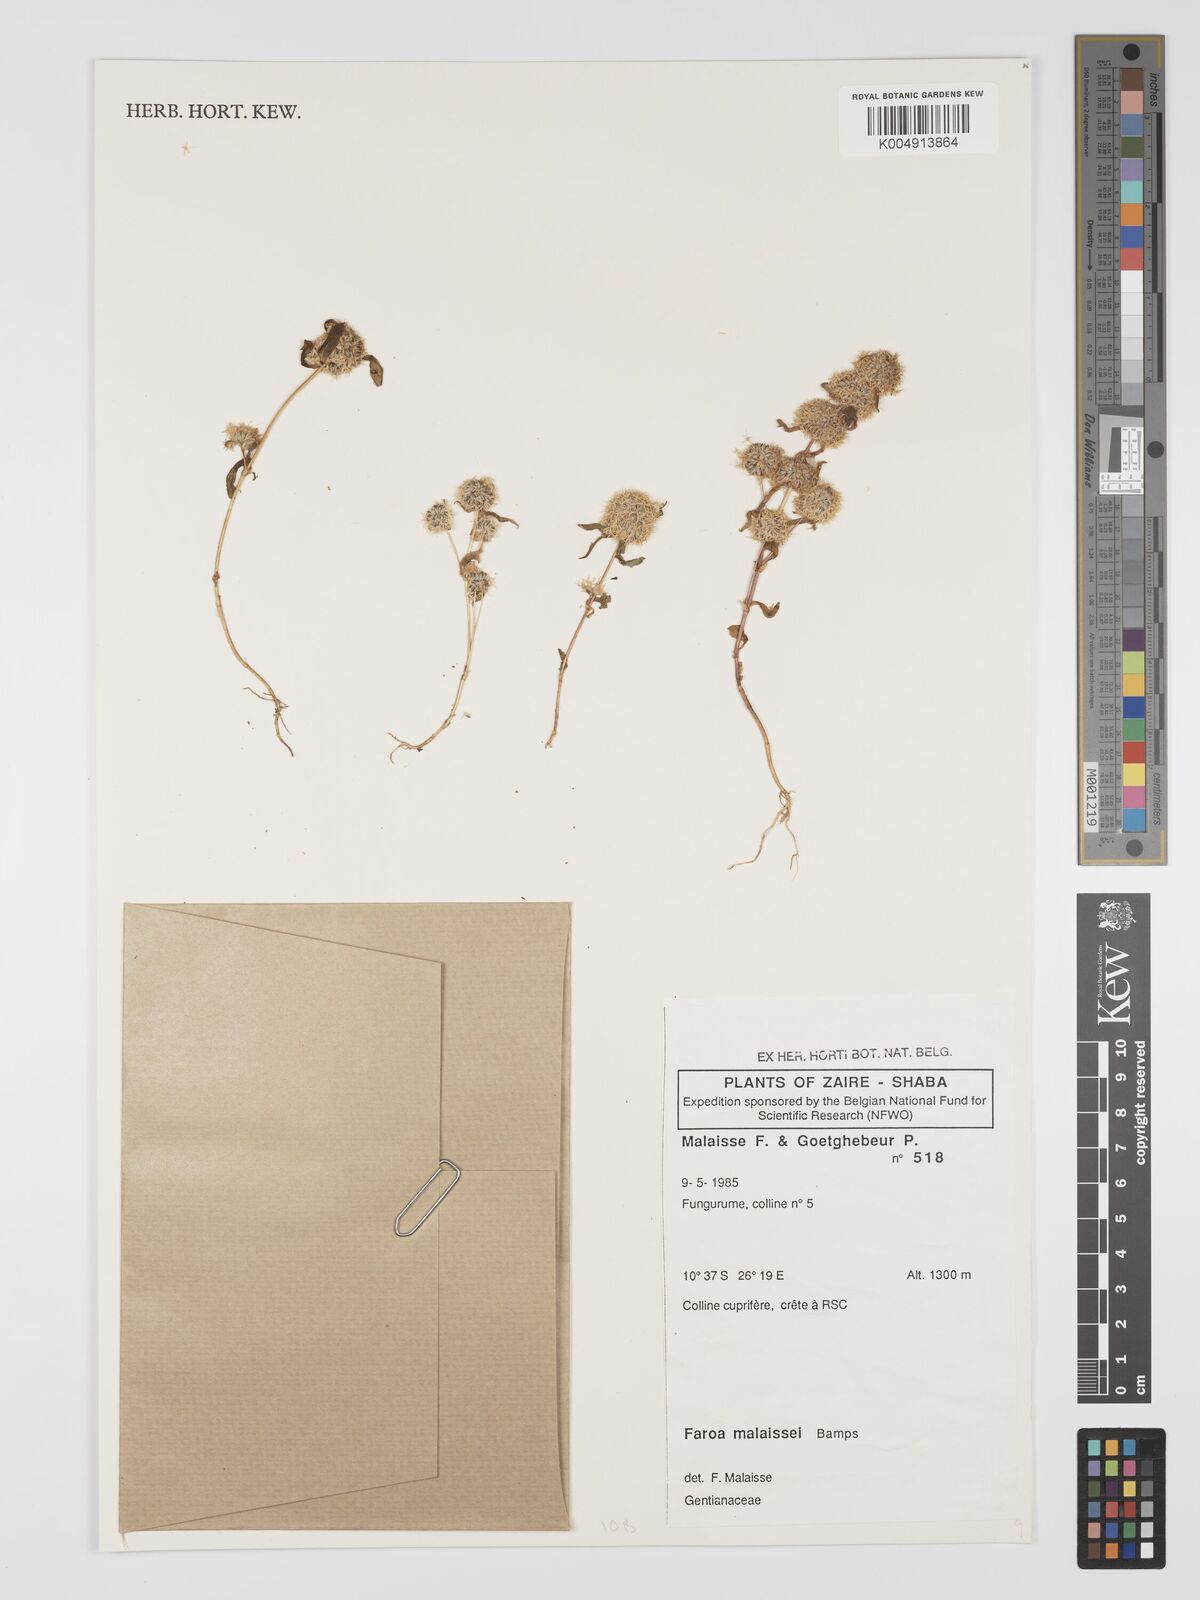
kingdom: Plantae
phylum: Tracheophyta
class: Magnoliopsida
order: Gentianales
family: Gentianaceae
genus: Faroa
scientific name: Faroa malaissei
